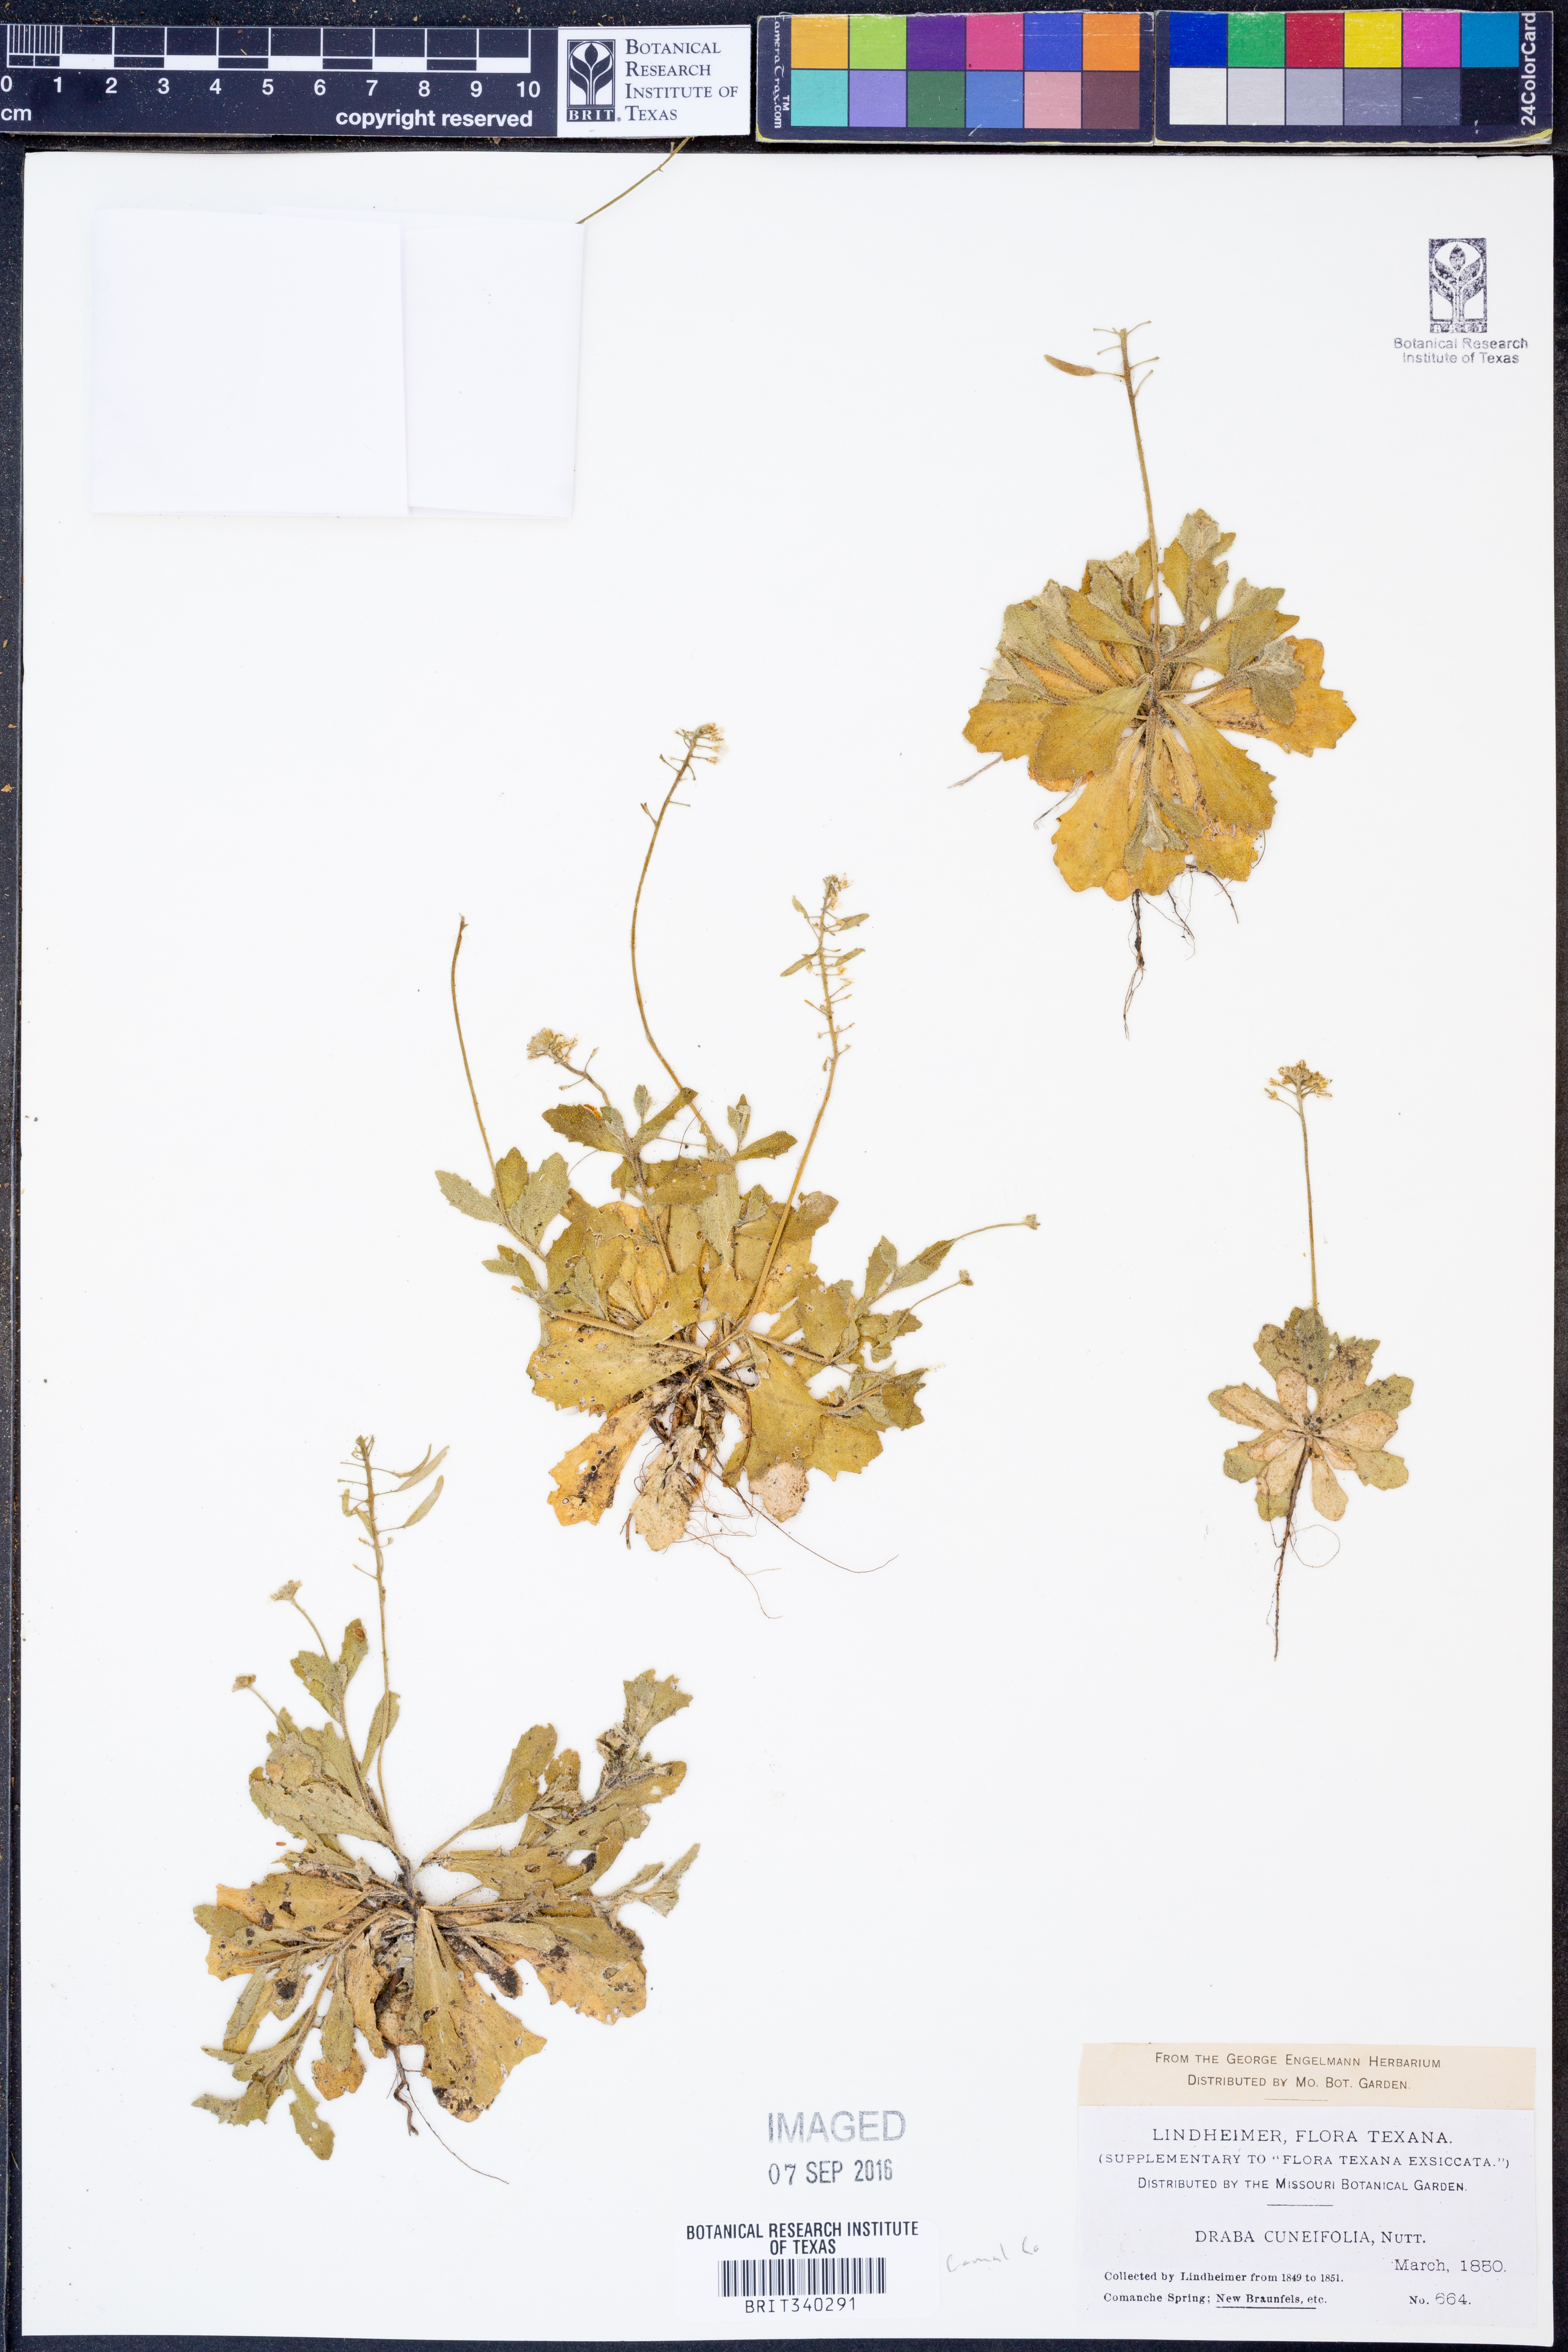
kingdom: Plantae
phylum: Tracheophyta
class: Magnoliopsida
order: Brassicales
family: Brassicaceae
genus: Tomostima
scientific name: Tomostima cuneifolia
